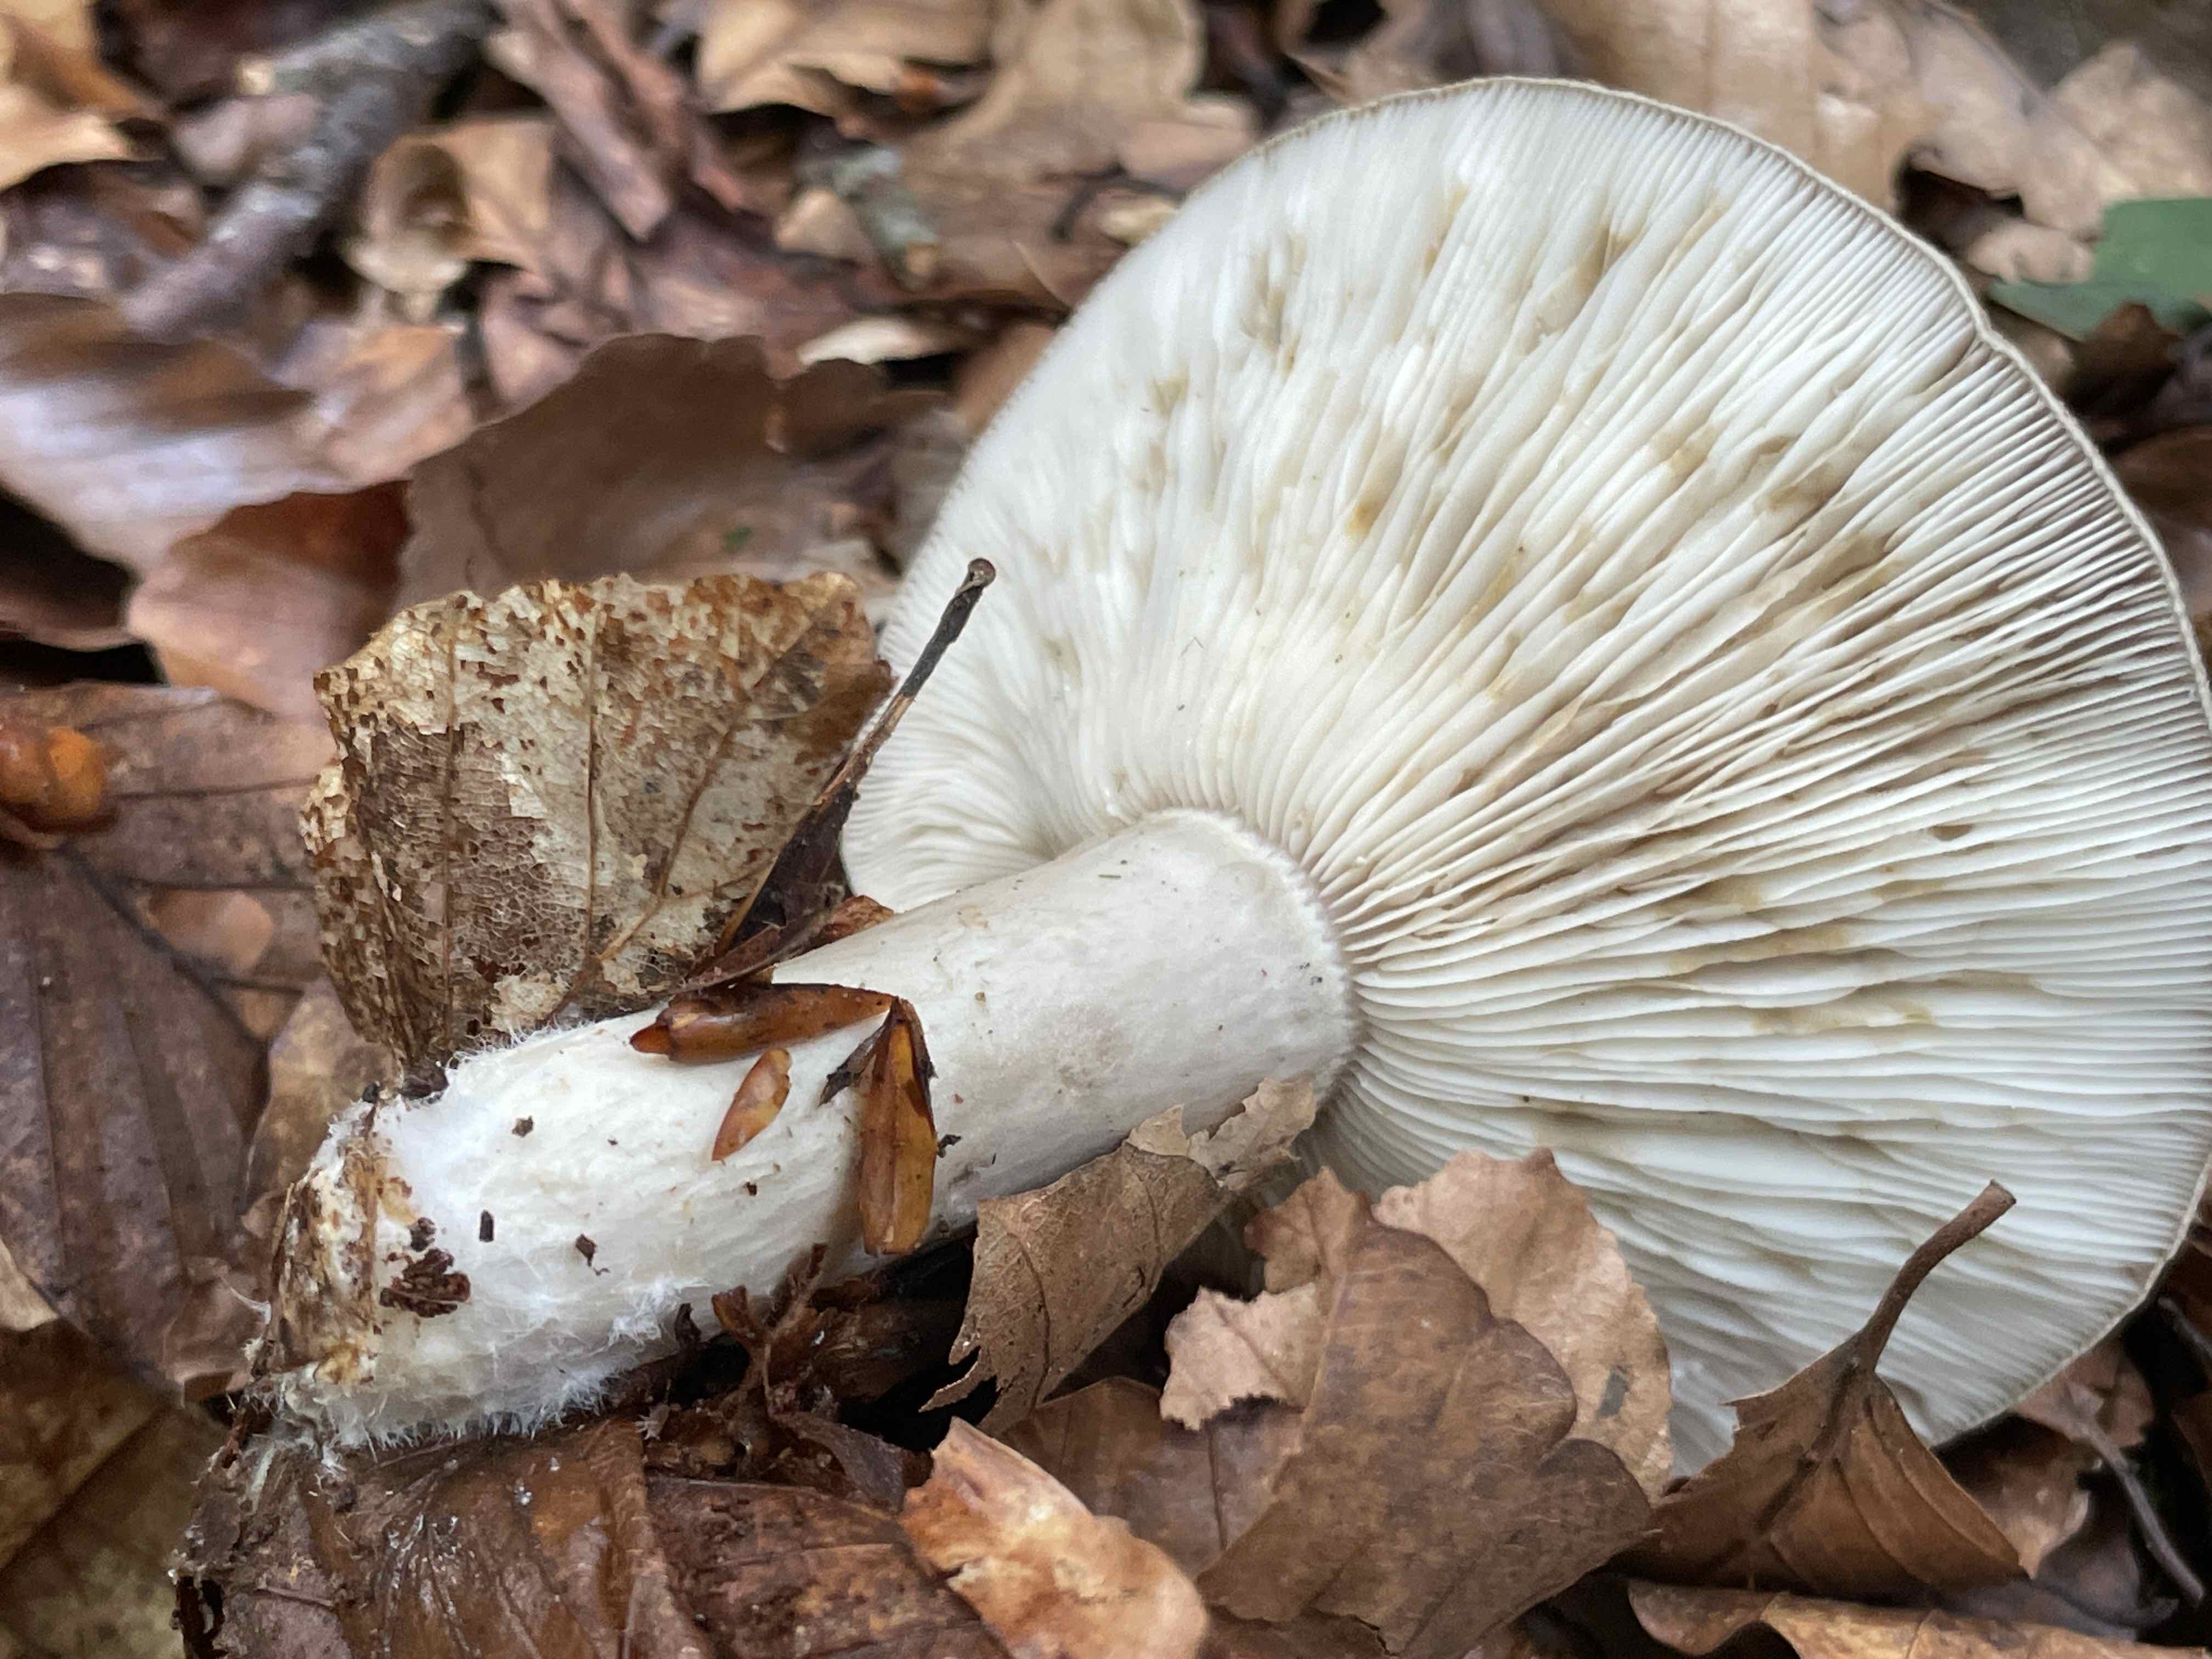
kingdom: Fungi
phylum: Basidiomycota
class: Agaricomycetes
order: Russulales
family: Russulaceae
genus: Lactarius
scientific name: Lactarius blennius
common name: dråbeplettet mælkehat
